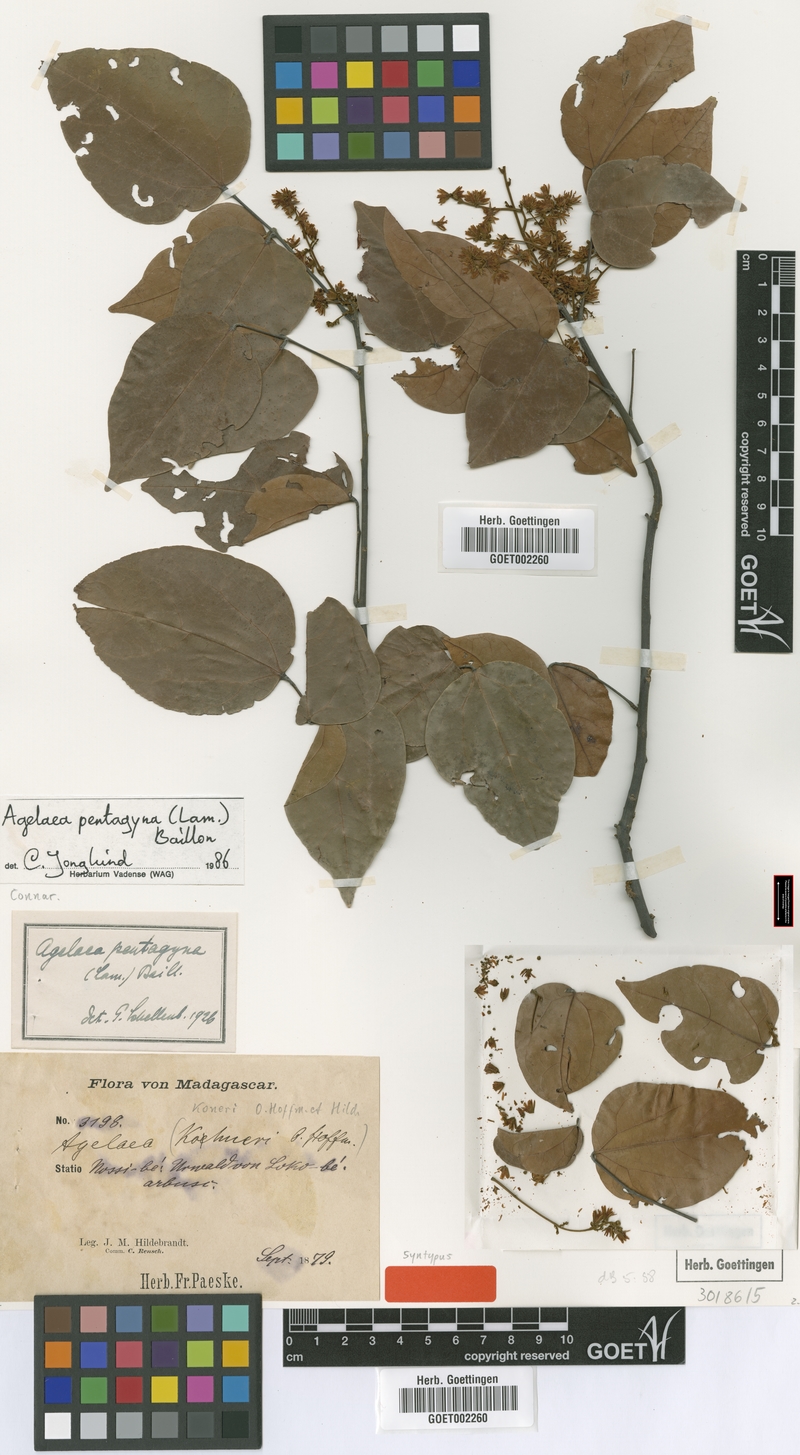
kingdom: Plantae
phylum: Tracheophyta
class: Magnoliopsida
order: Oxalidales
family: Connaraceae
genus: Agelaea
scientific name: Agelaea pentagyna
